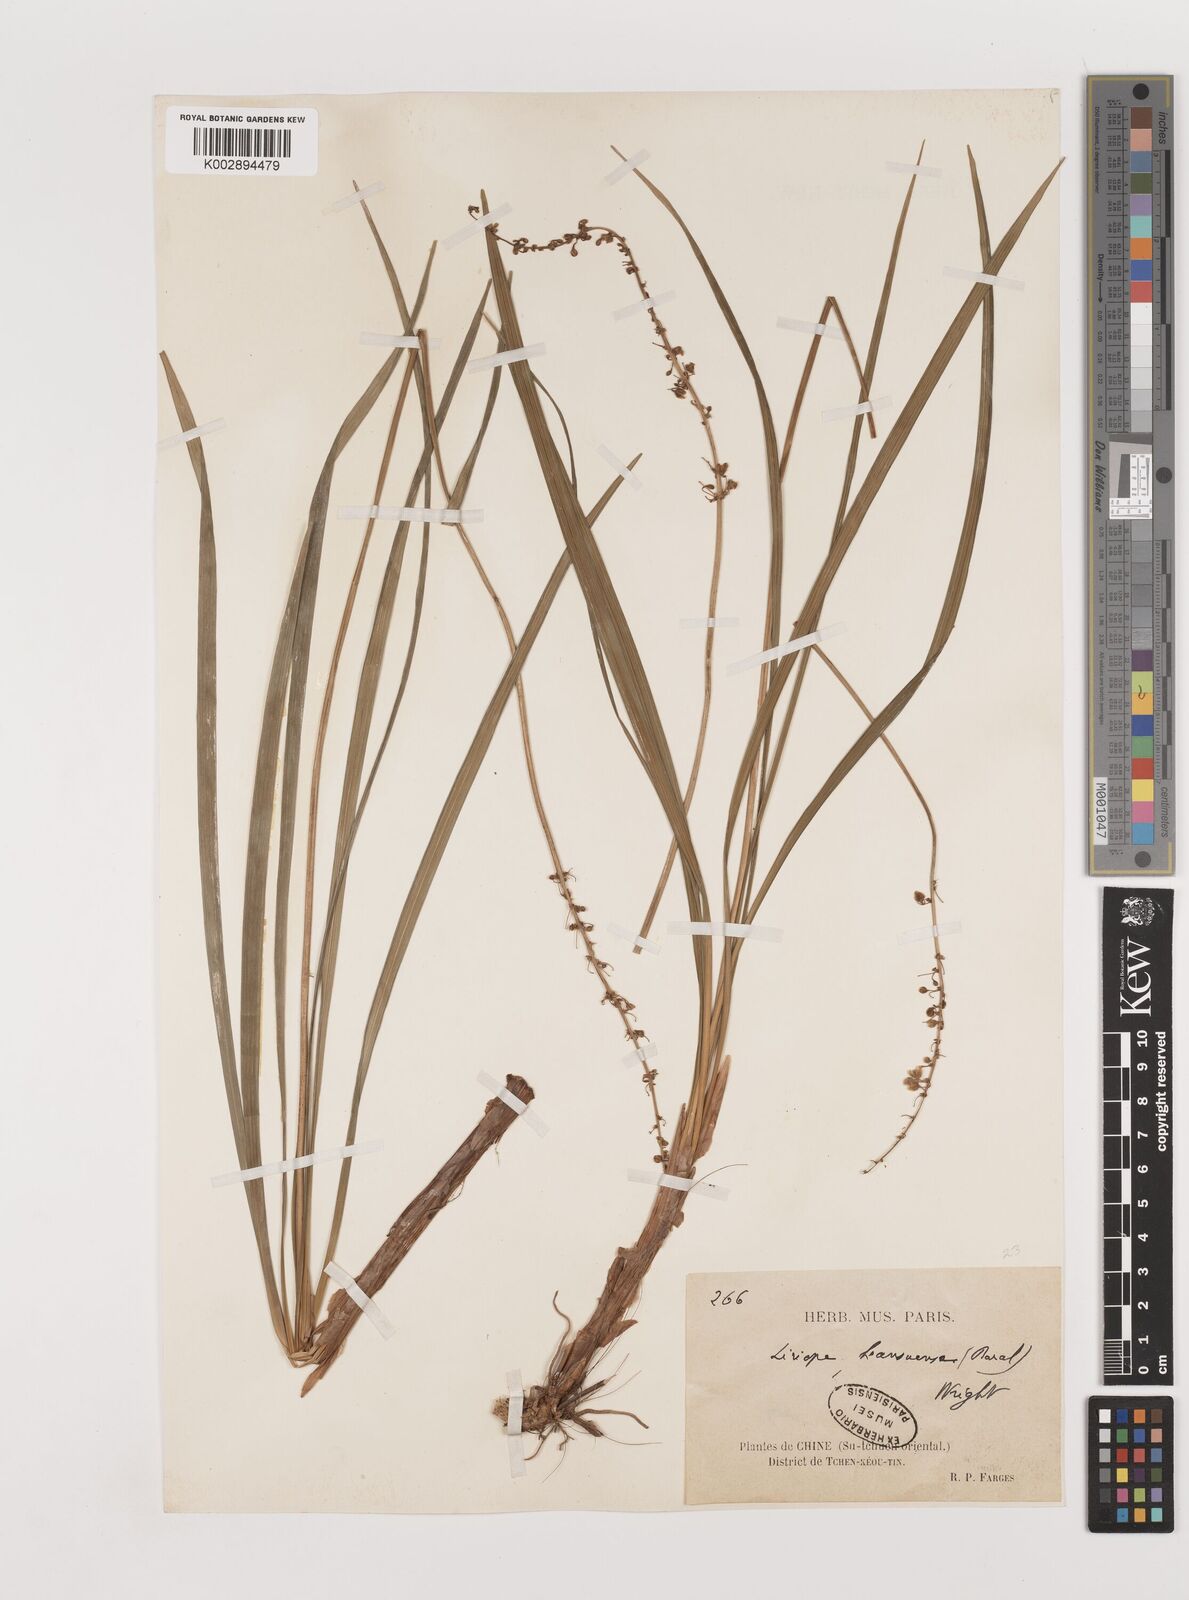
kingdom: Plantae
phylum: Tracheophyta
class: Liliopsida
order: Asparagales
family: Asparagaceae
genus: Liriope
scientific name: Liriope spicata
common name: Creeping liriope
